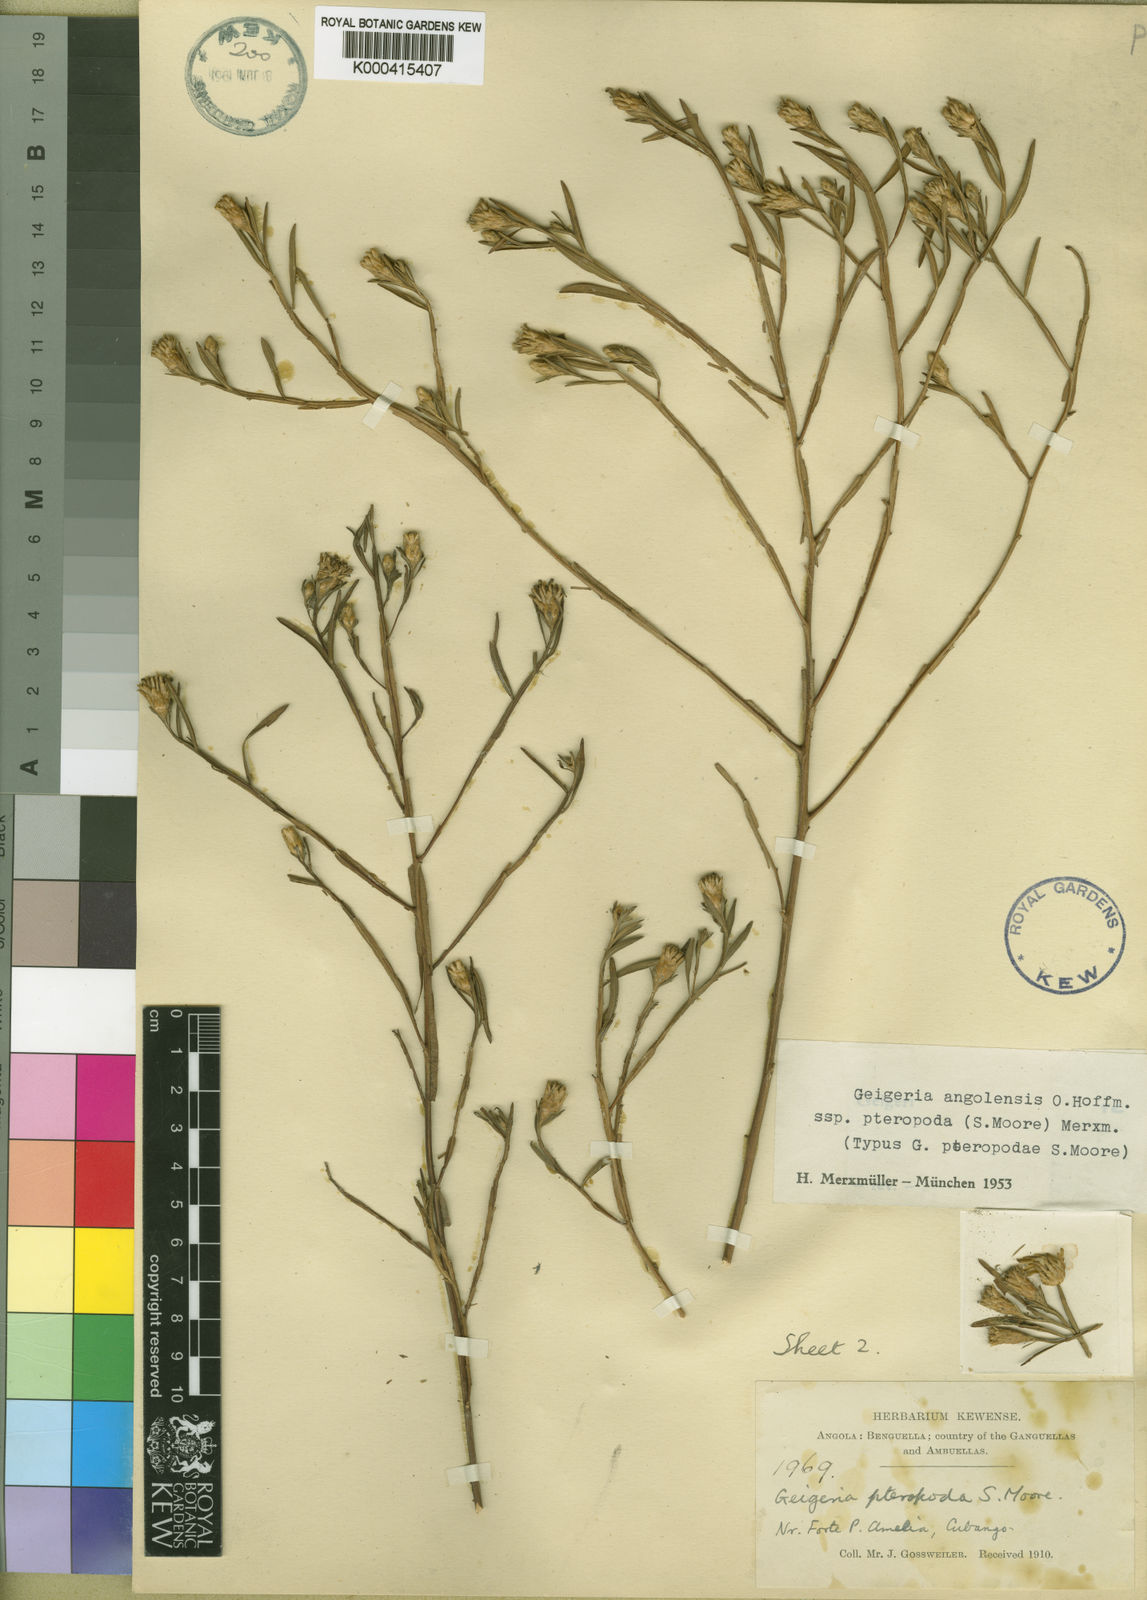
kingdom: Plantae
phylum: Tracheophyta
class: Magnoliopsida
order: Asterales
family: Asteraceae
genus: Geigeria
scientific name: Geigeria angolensis
